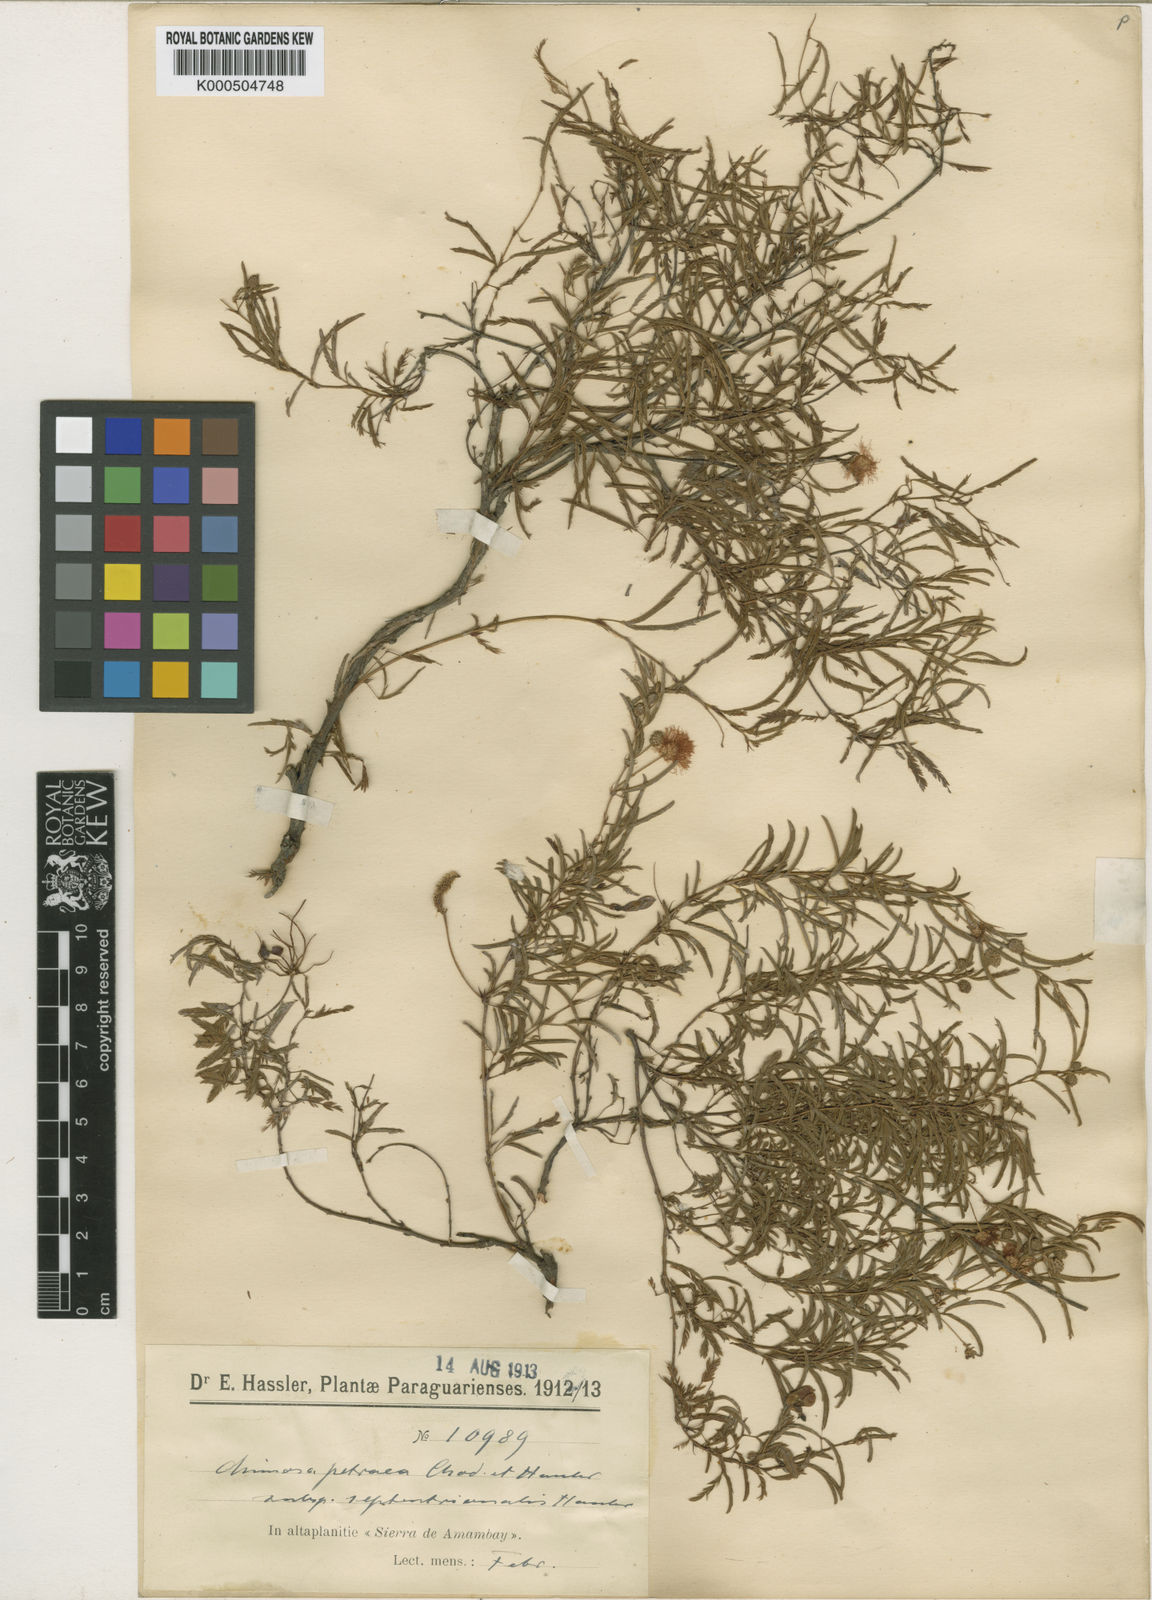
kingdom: Plantae
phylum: Tracheophyta
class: Magnoliopsida
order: Fabales
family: Fabaceae
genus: Mimosa
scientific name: Mimosa petraea
